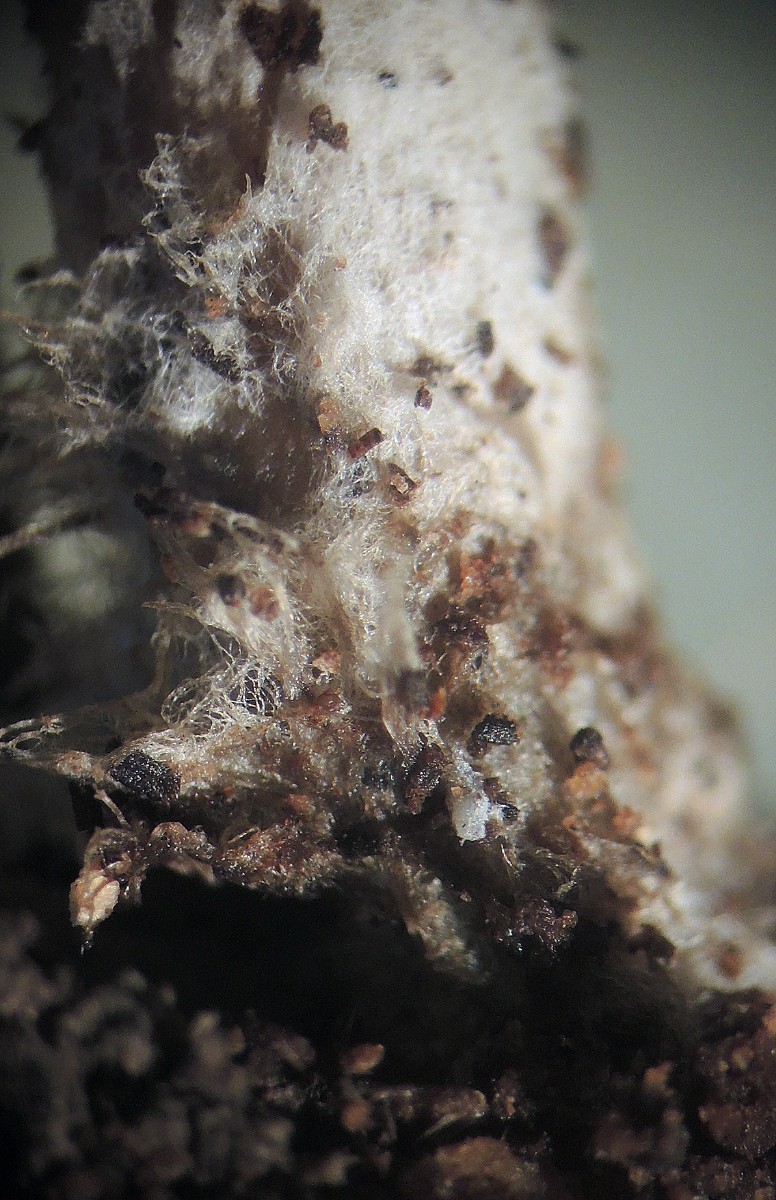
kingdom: Fungi
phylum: Basidiomycota
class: Agaricomycetes
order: Agaricales
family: Lyophyllaceae
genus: Tephrocybella
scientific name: Tephrocybella griseonigrescens
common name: grånende fagerhat
